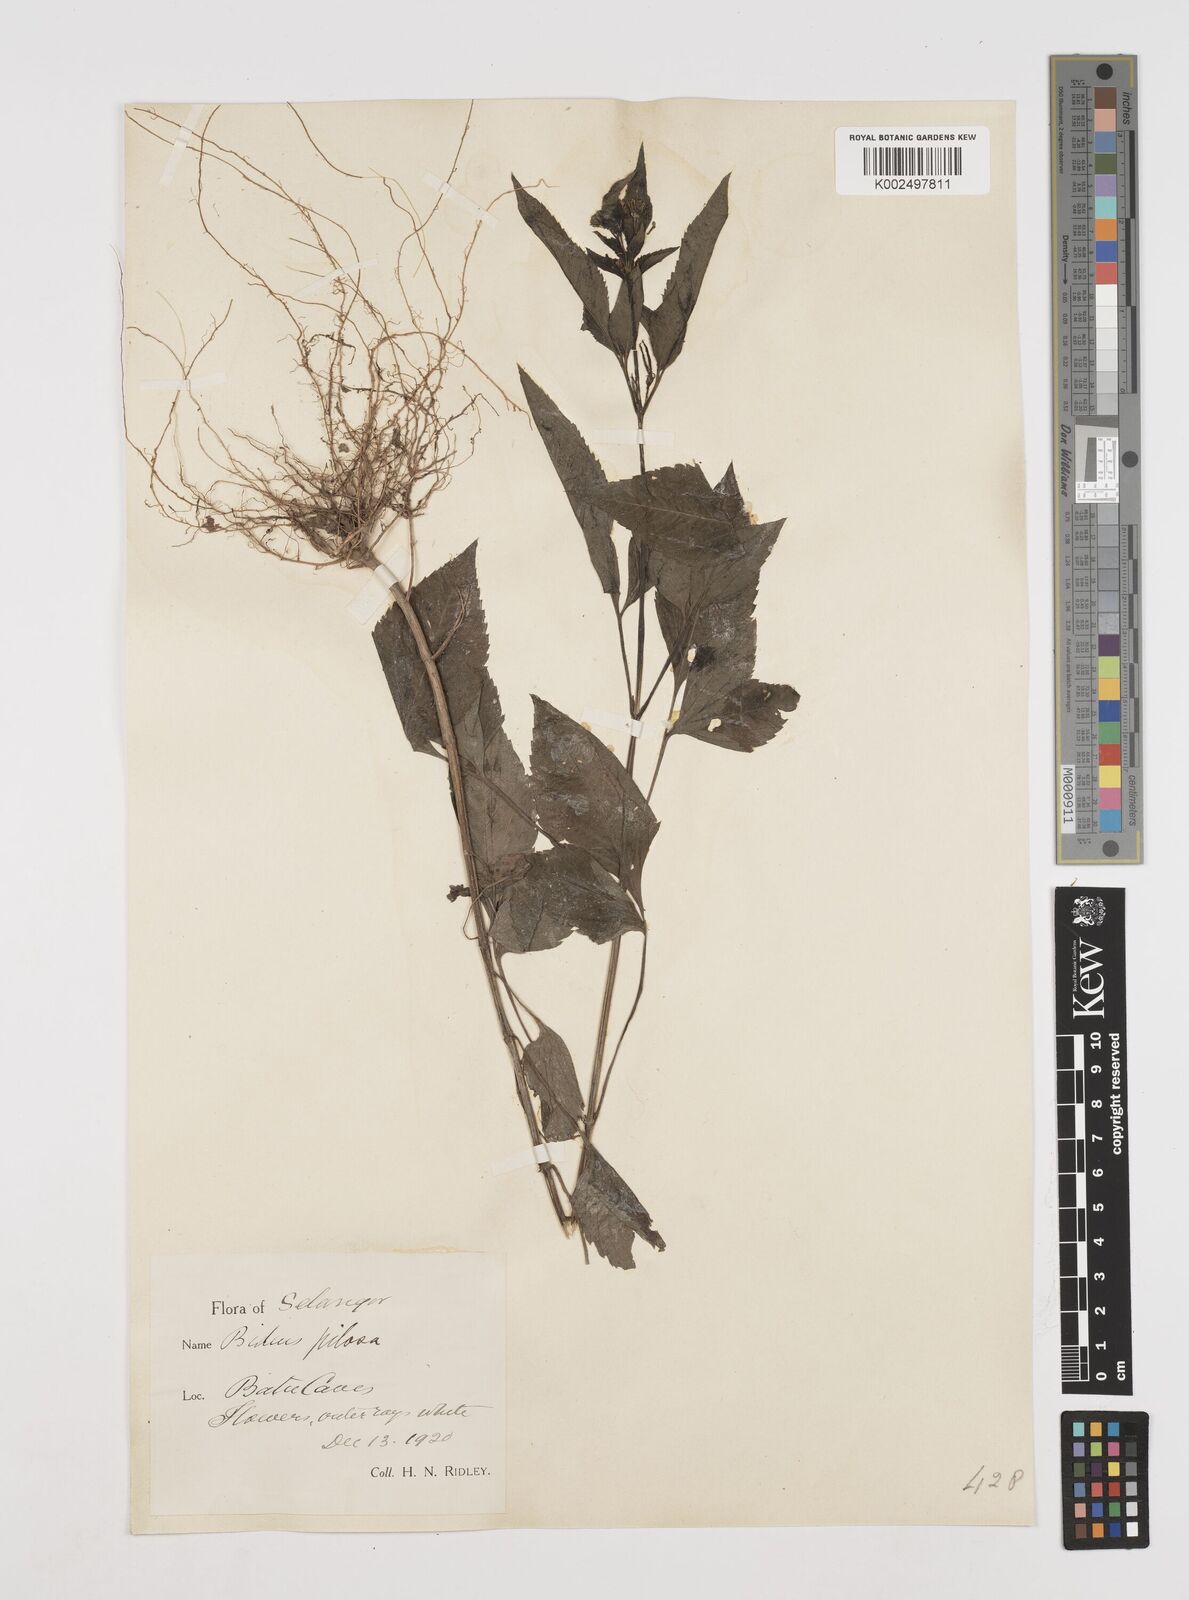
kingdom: Plantae
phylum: Tracheophyta
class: Magnoliopsida
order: Asterales
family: Asteraceae
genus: Bidens
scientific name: Bidens pilosa
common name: Black-jack
